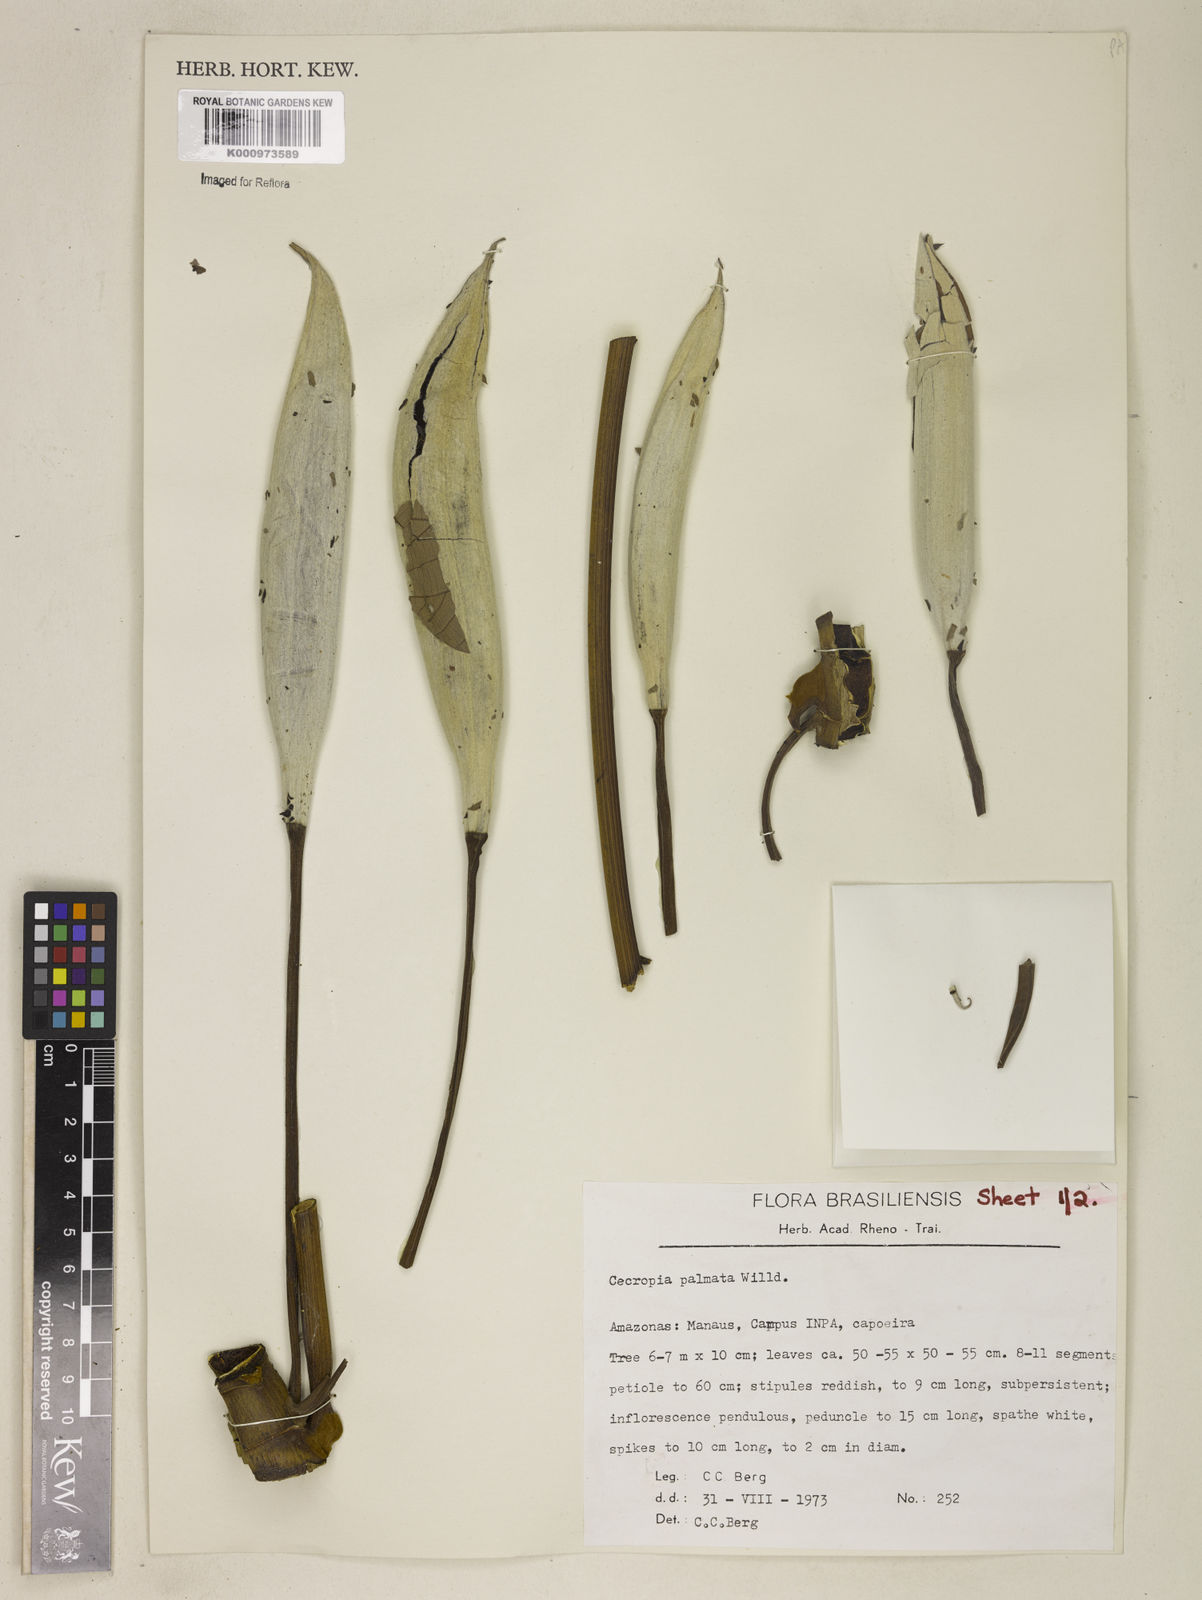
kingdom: Plantae
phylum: Tracheophyta
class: Magnoliopsida
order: Rosales
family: Urticaceae
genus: Cecropia
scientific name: Cecropia palmata
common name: Trumpet tree
